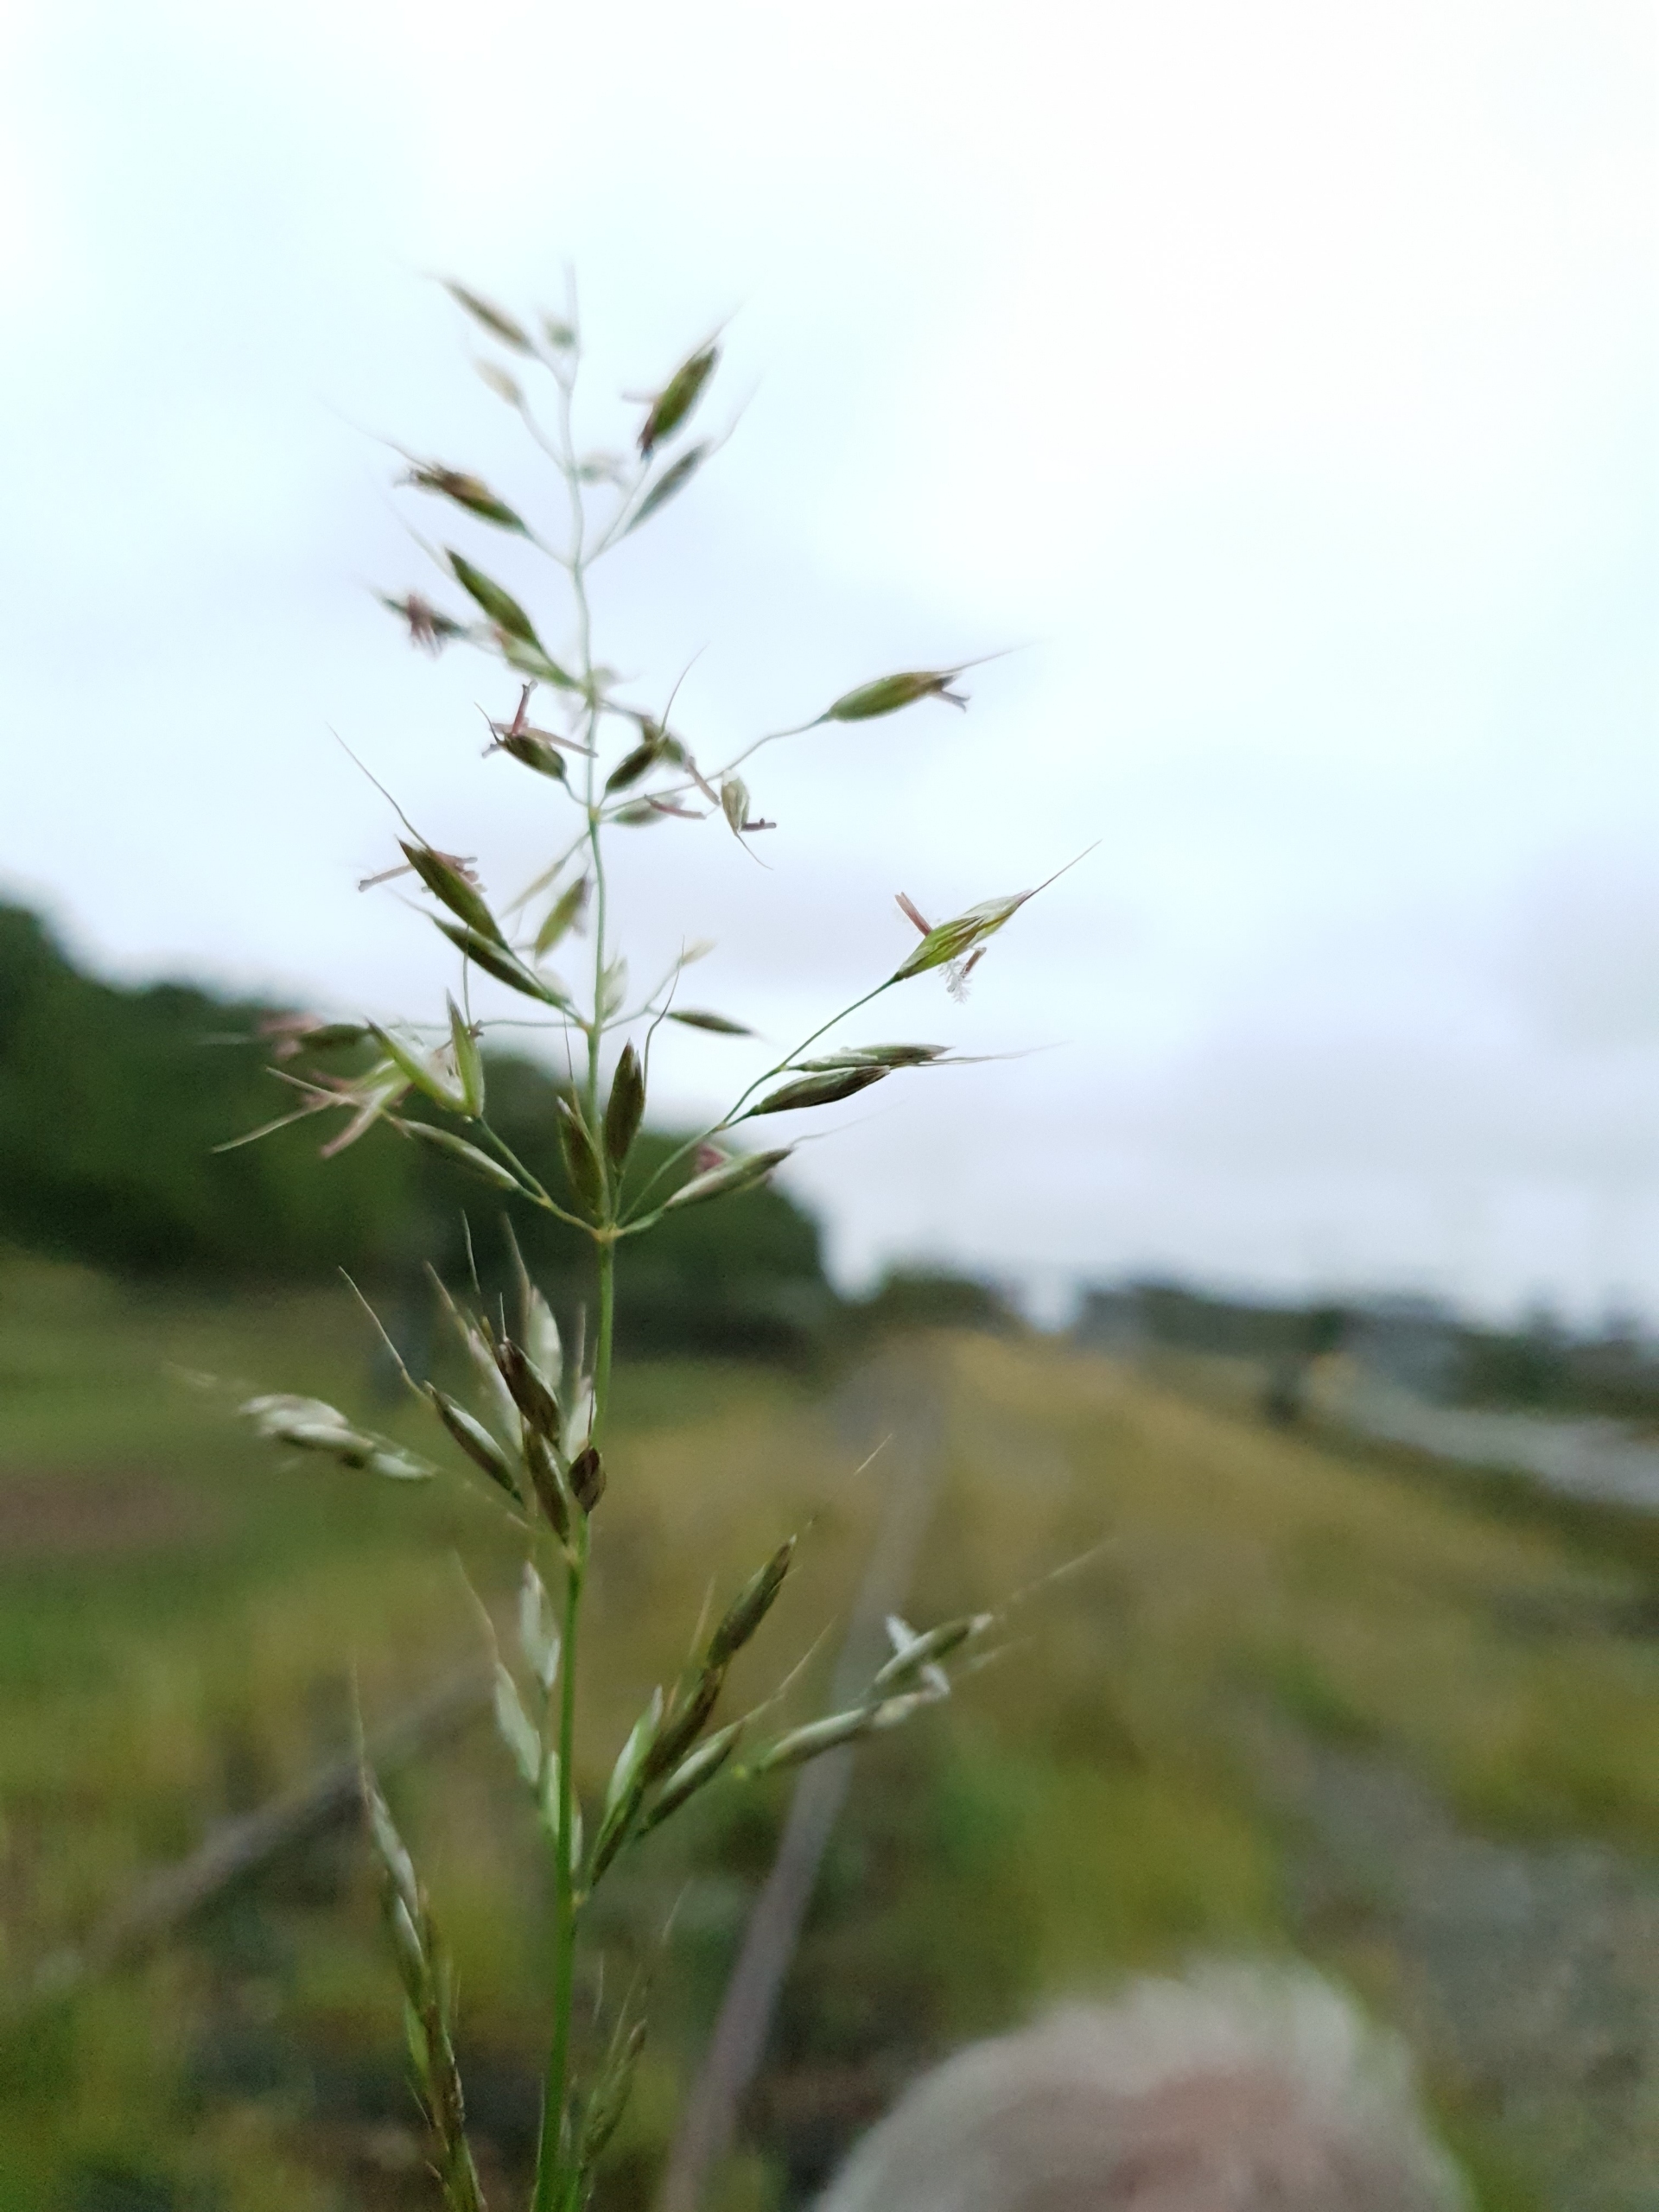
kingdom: Plantae
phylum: Tracheophyta
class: Liliopsida
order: Poales
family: Poaceae
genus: Arrhenatherum
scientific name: Arrhenatherum elatius
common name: Draphavre
